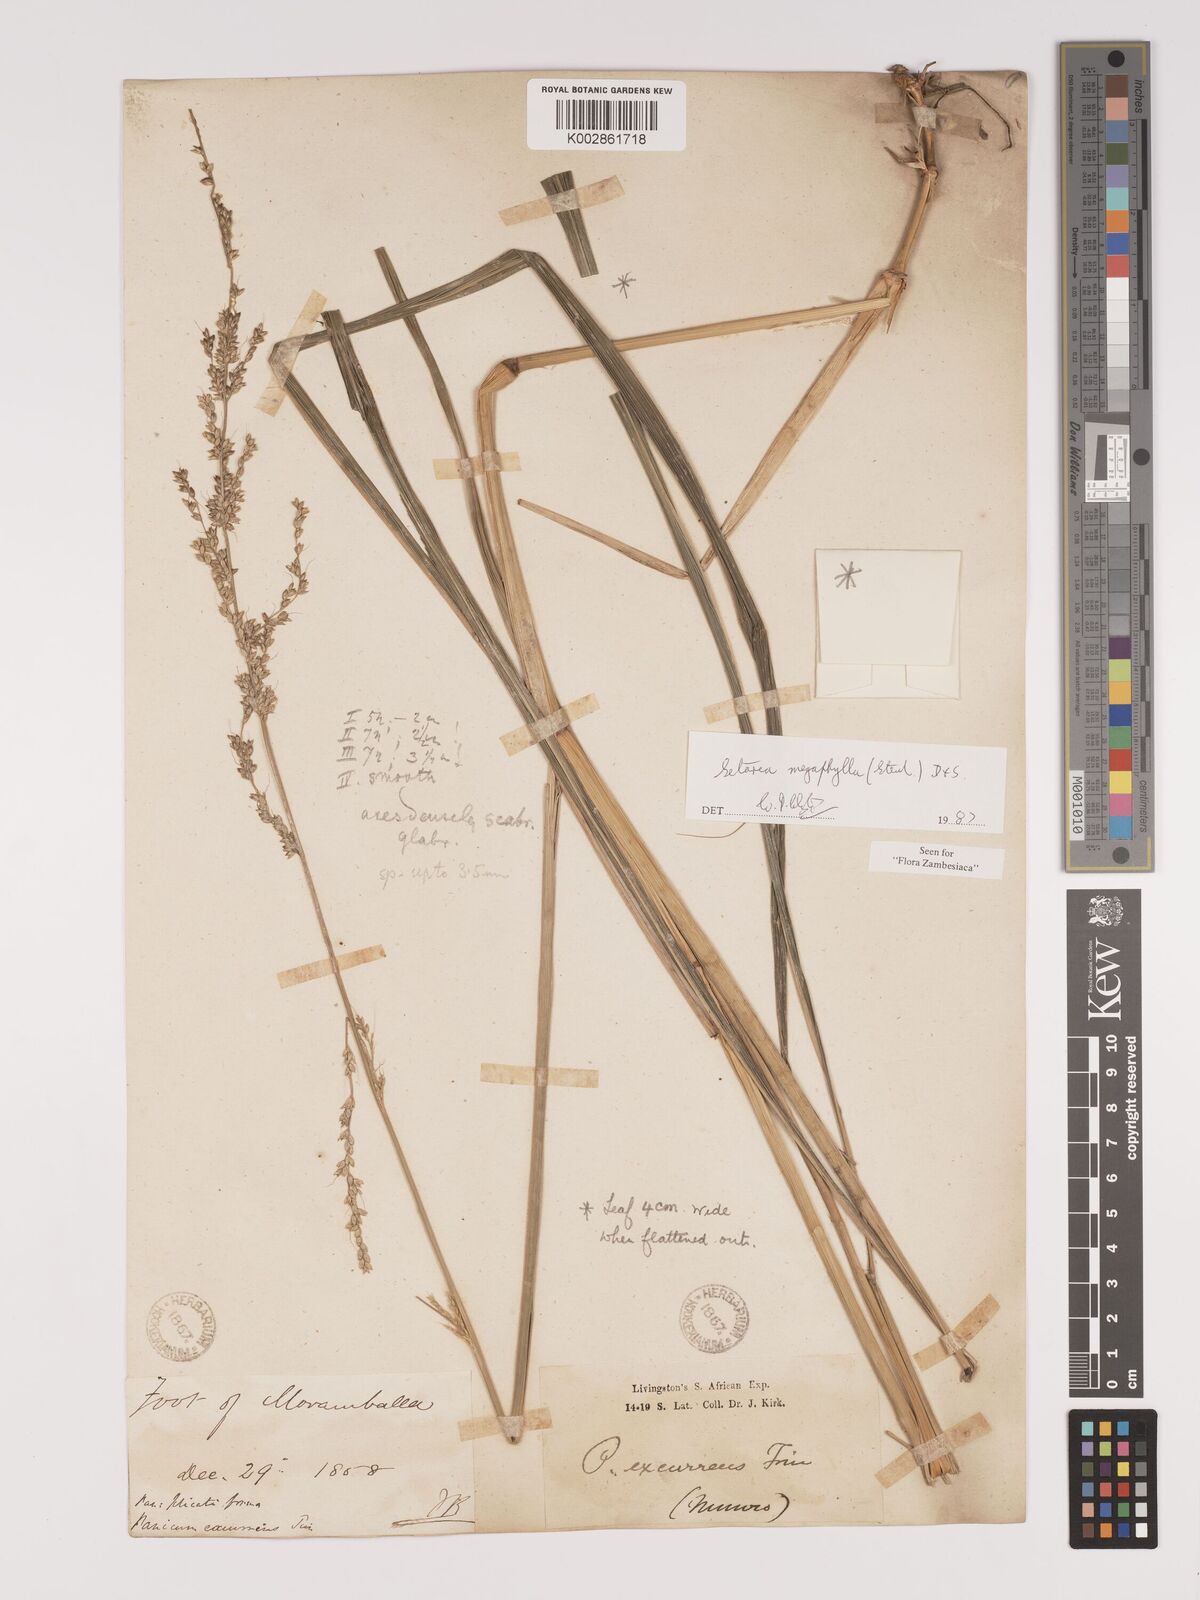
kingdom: Plantae
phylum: Tracheophyta
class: Liliopsida
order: Poales
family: Poaceae
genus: Setaria
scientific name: Setaria megaphylla
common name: Bigleaf bristlegrass
